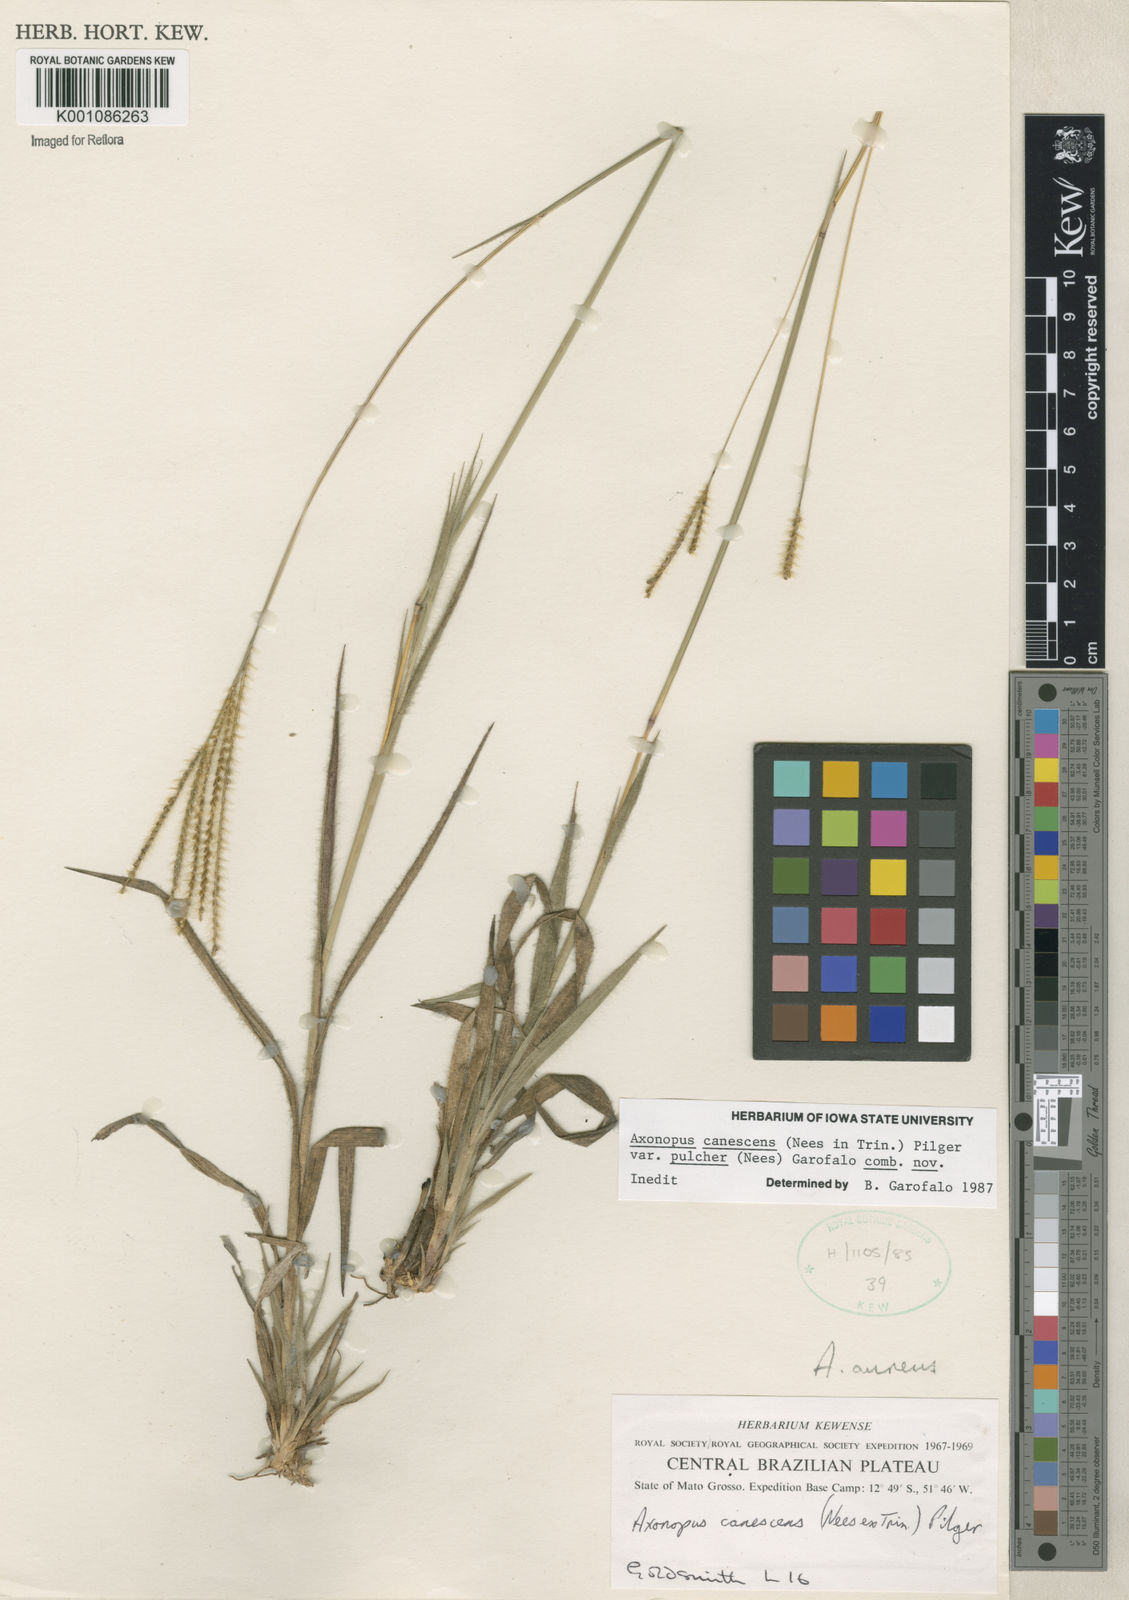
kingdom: Plantae
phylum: Tracheophyta
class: Liliopsida
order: Poales
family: Poaceae
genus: Axonopus
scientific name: Axonopus aureus
